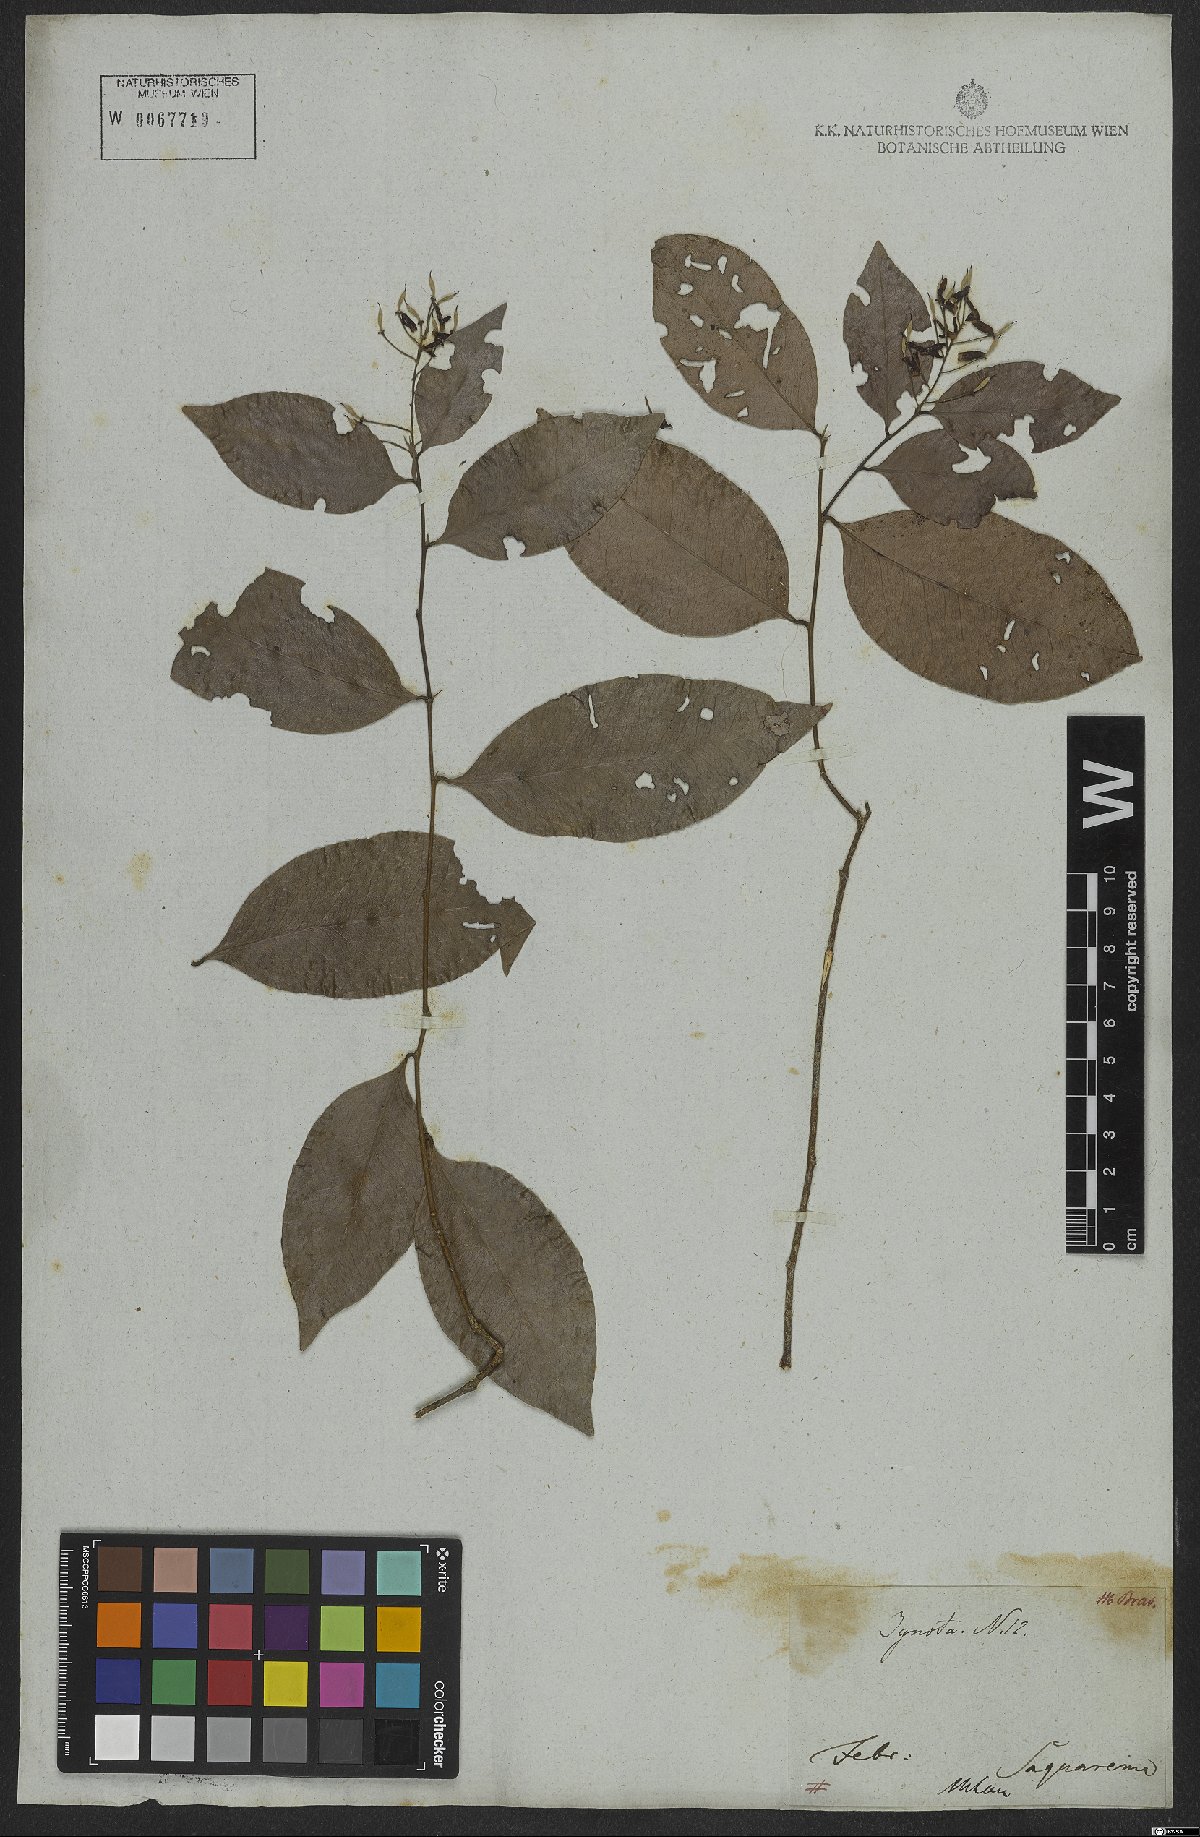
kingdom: Plantae
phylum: Tracheophyta
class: Magnoliopsida
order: Fabales
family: Fabaceae
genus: Exostyles
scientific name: Exostyles
